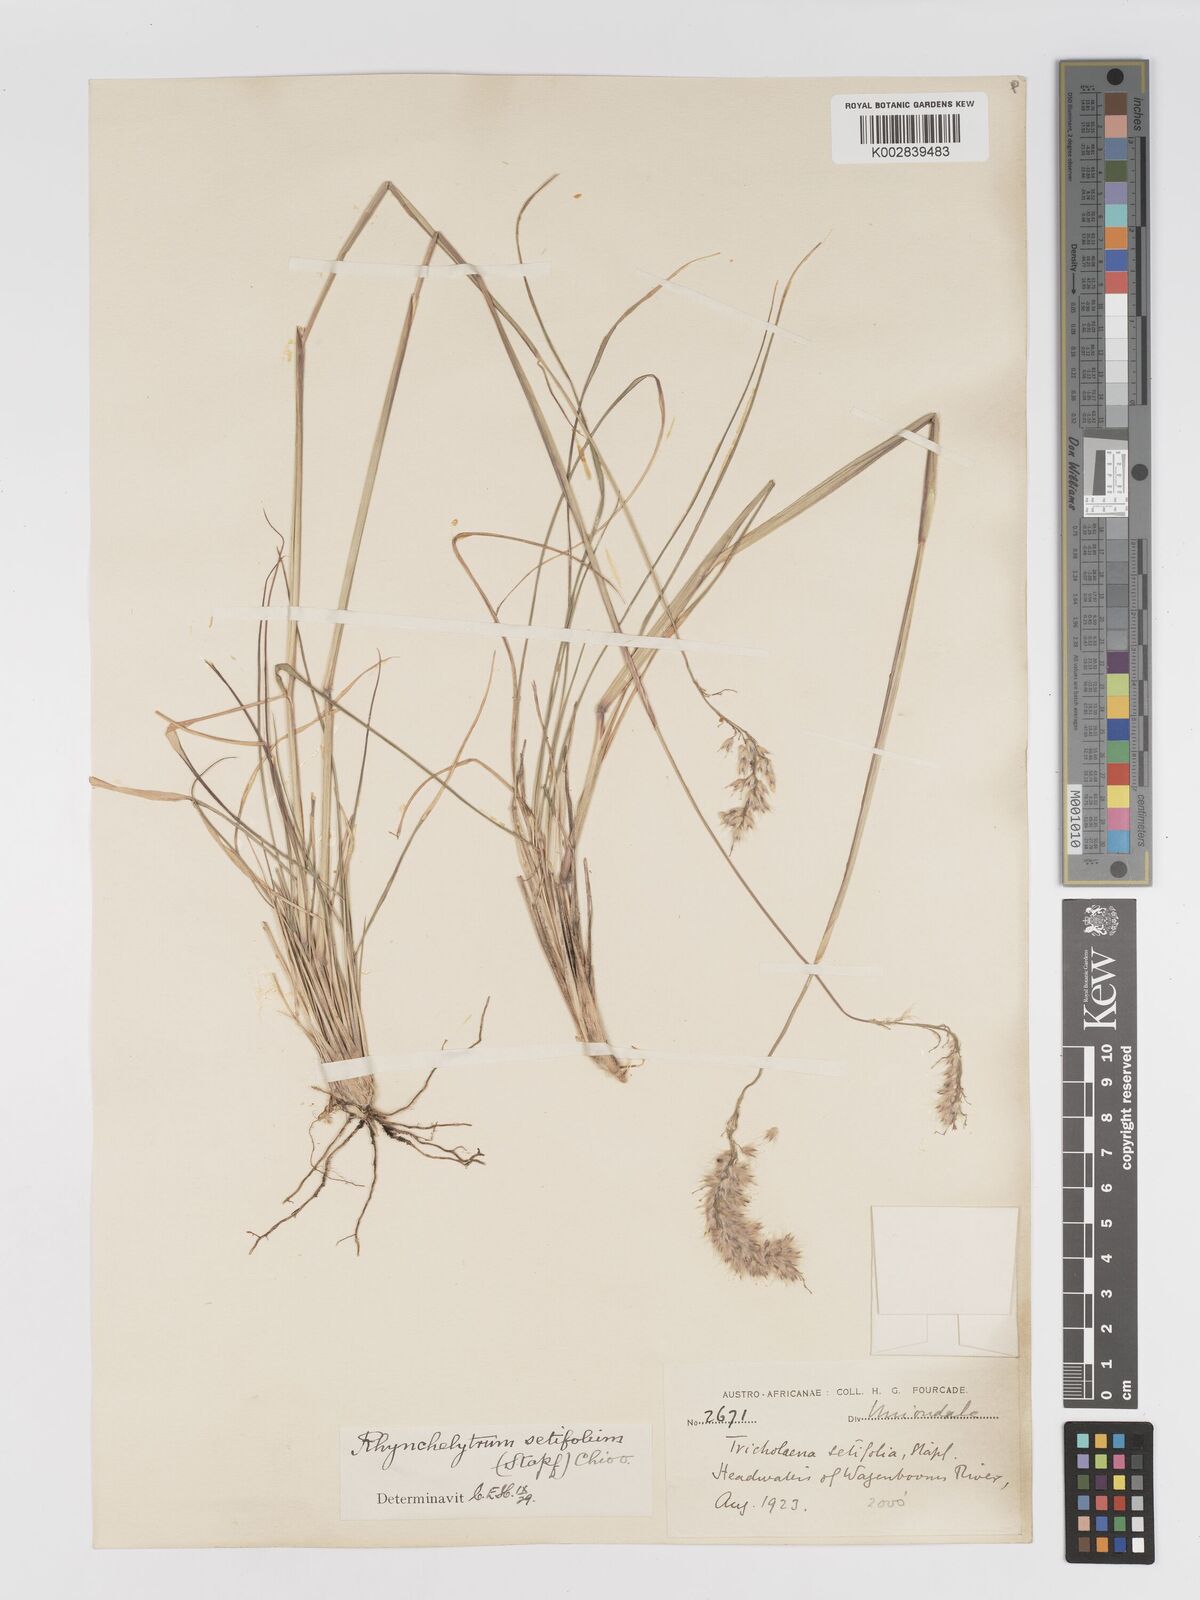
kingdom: Plantae
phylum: Tracheophyta
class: Liliopsida
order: Poales
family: Poaceae
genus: Melinis
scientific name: Melinis nerviglumis
